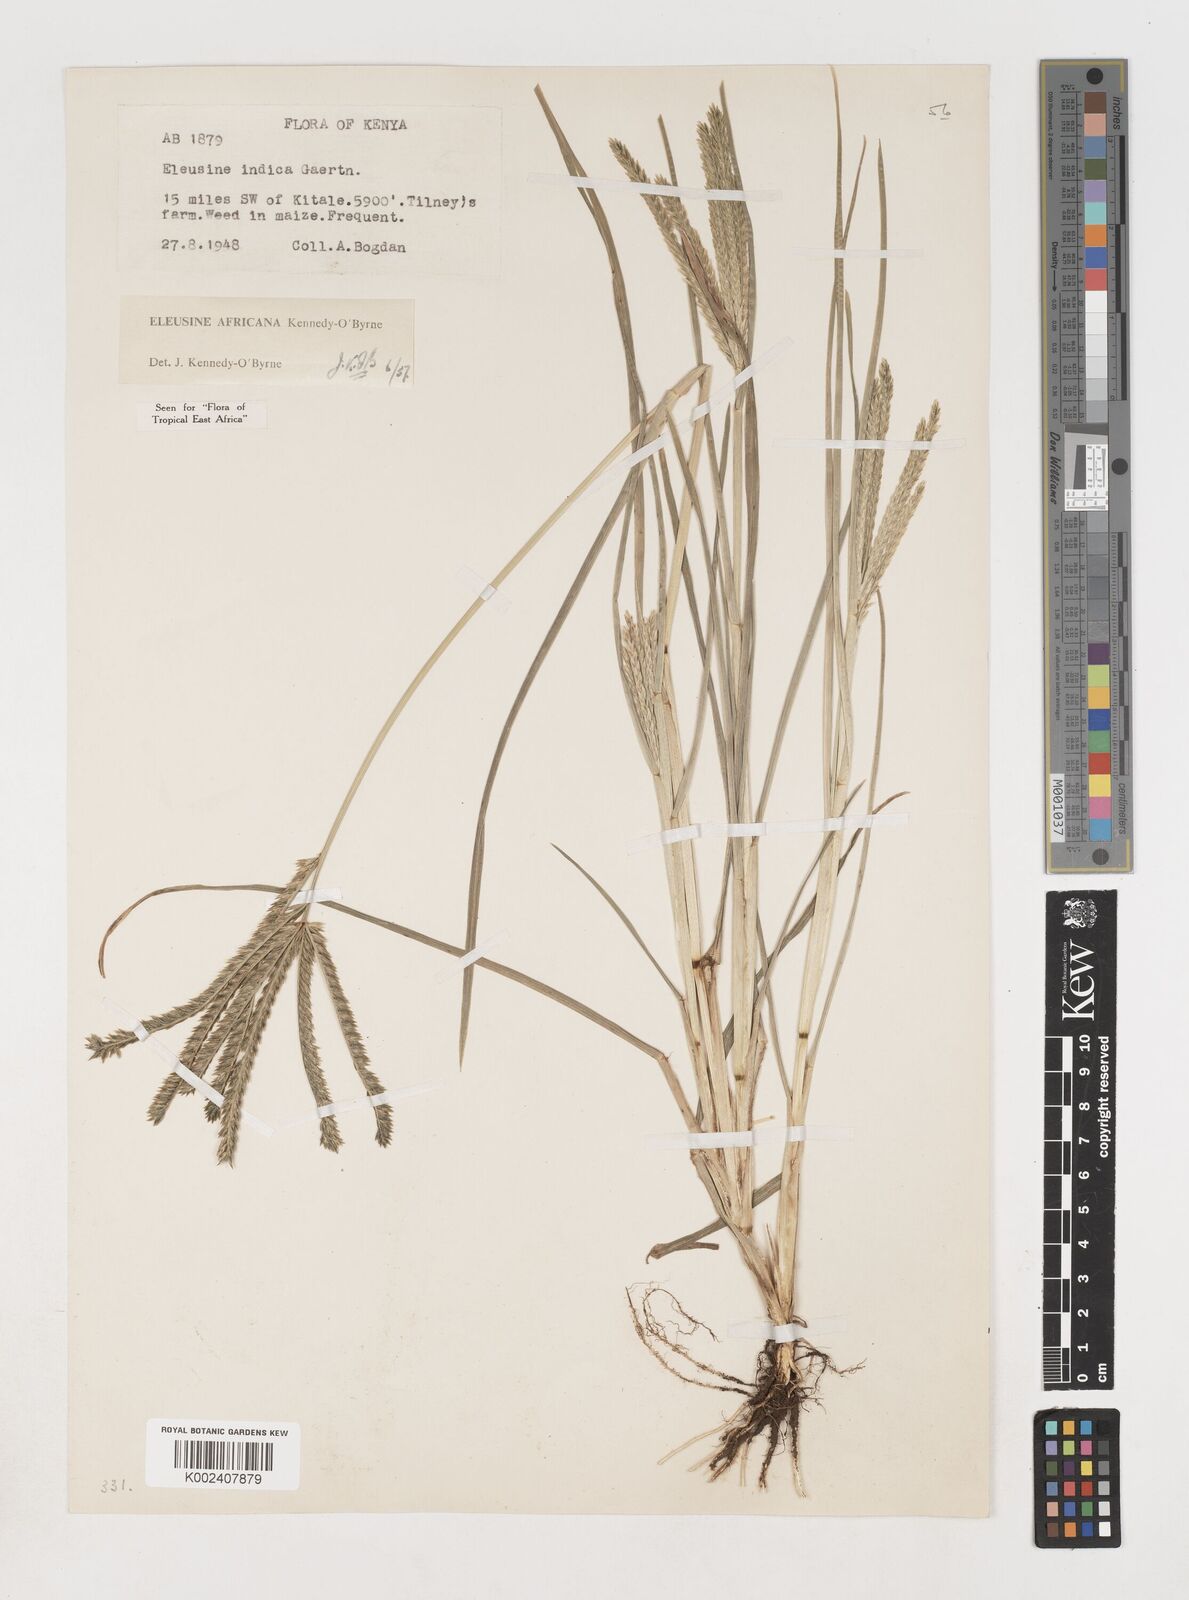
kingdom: Plantae
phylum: Tracheophyta
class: Liliopsida
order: Poales
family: Poaceae
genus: Eleusine
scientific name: Eleusine africana
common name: Wild african finger millet
